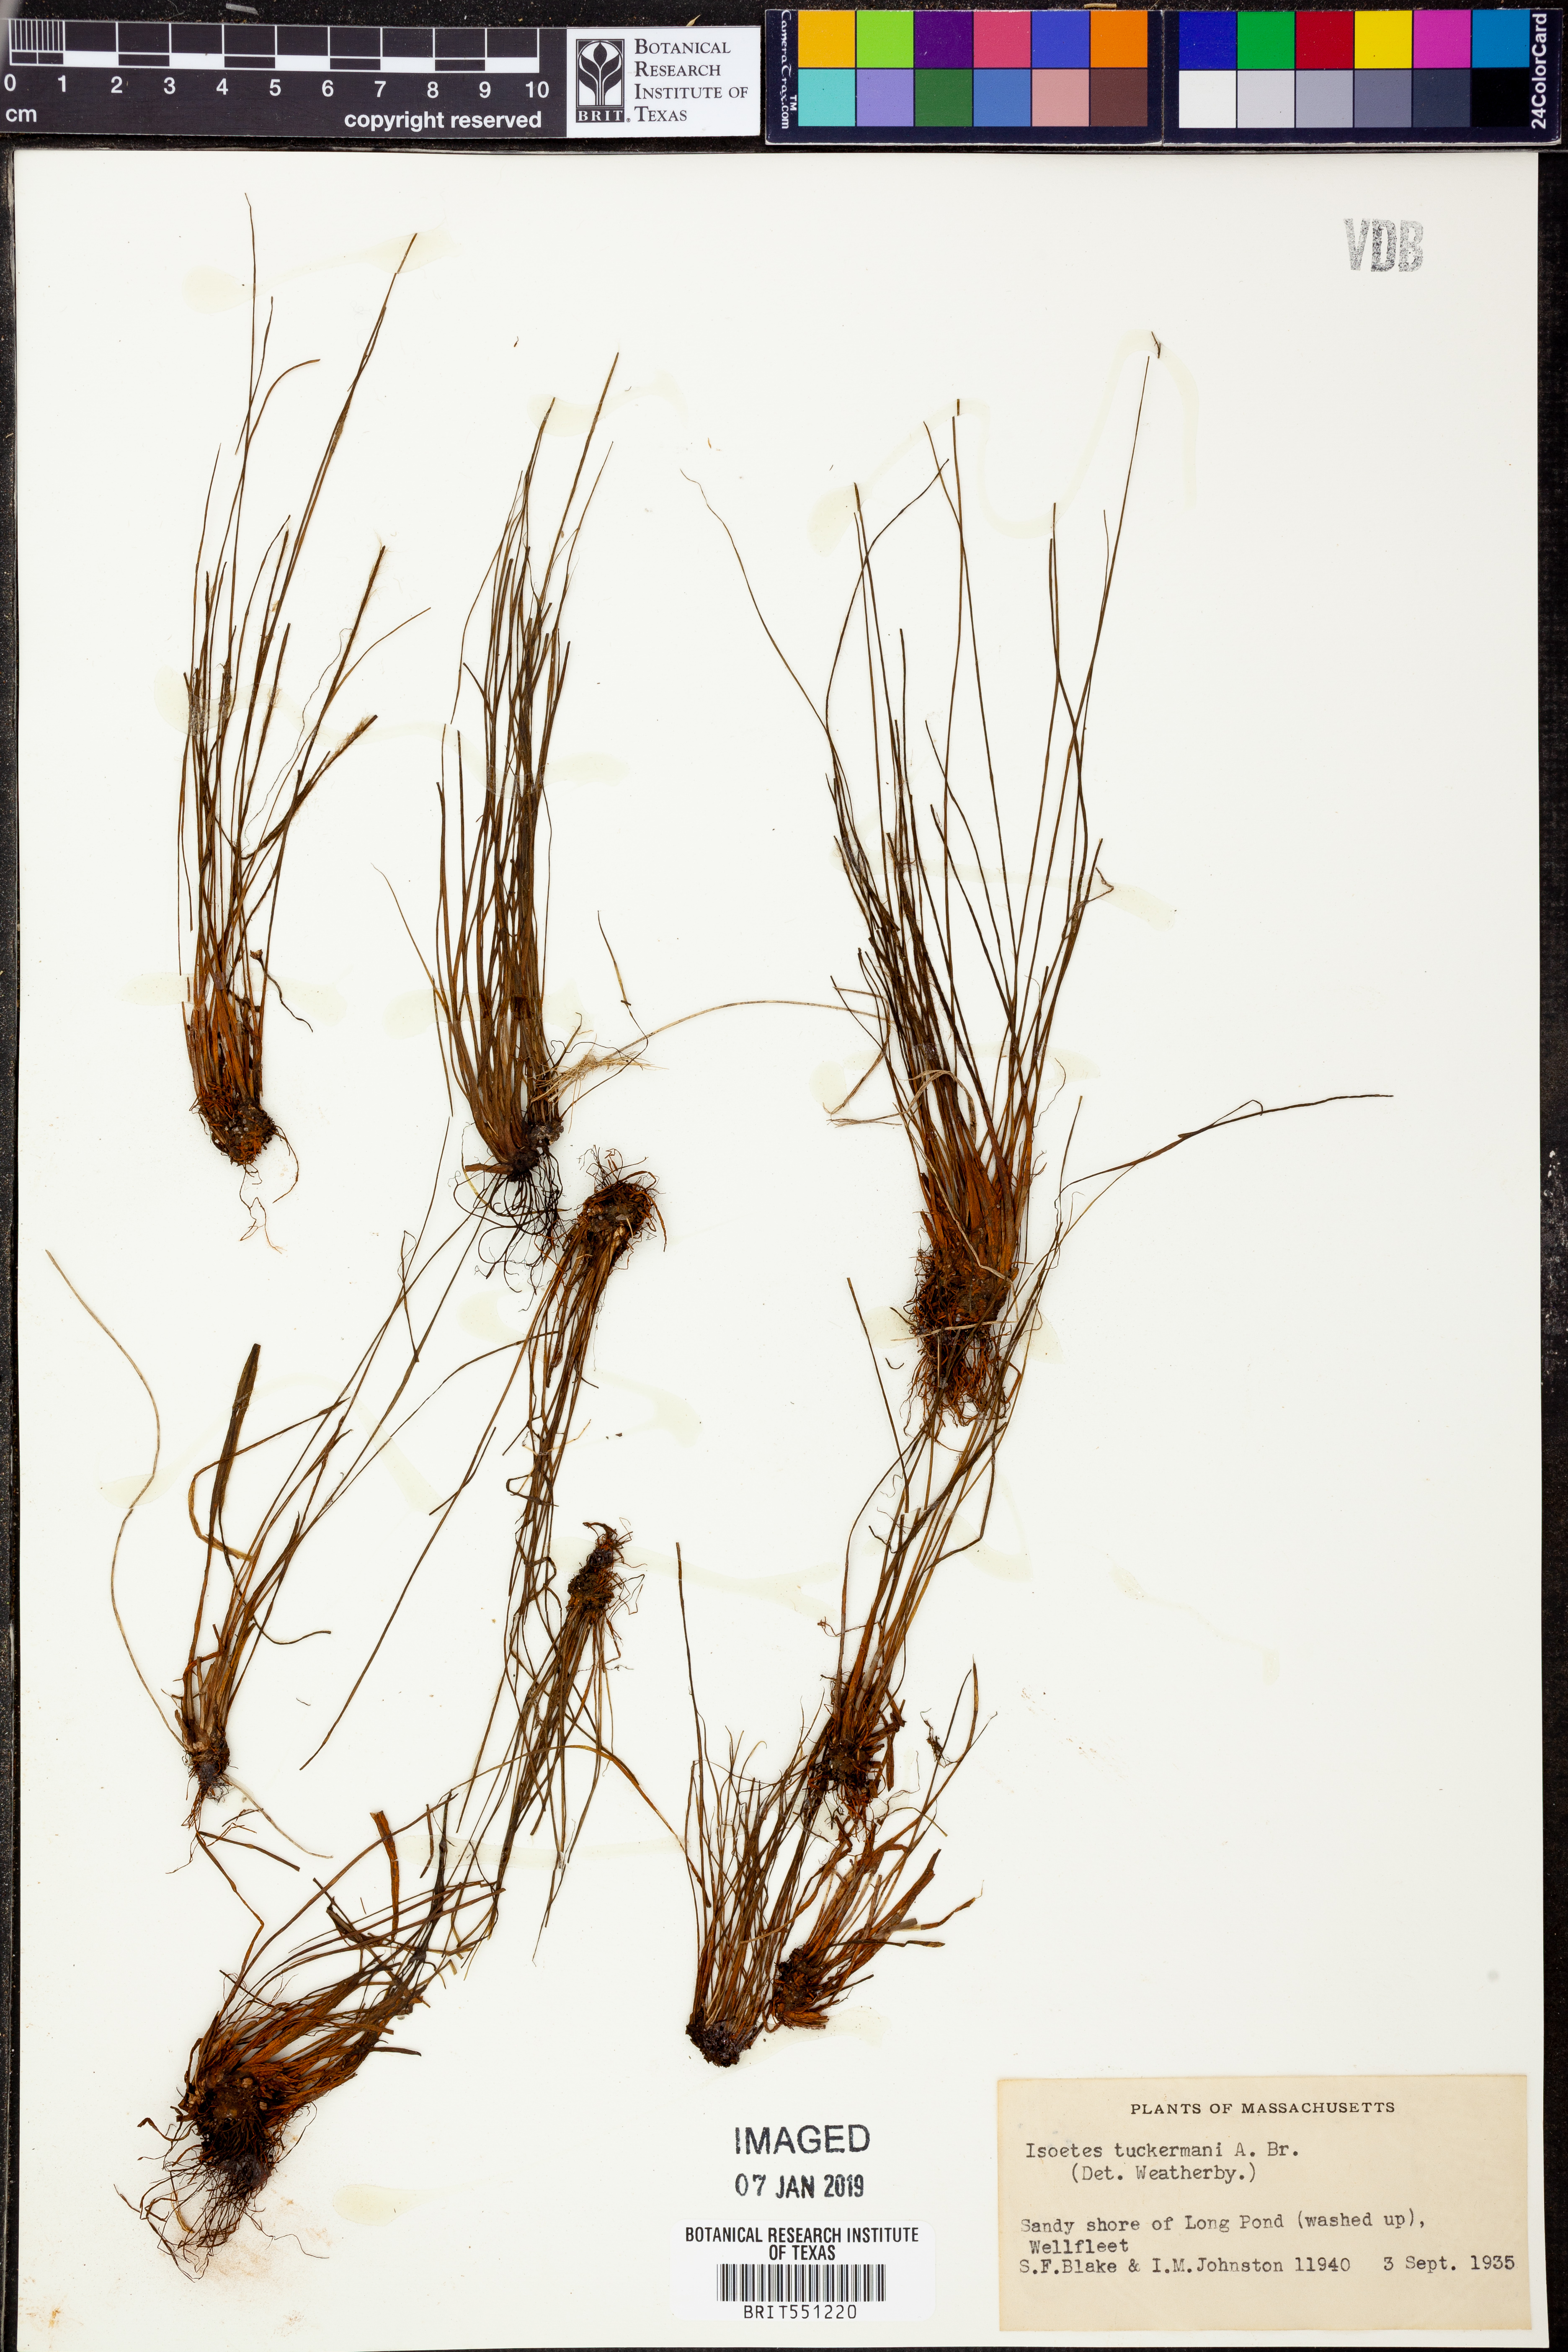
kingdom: Plantae
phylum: Tracheophyta
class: Lycopodiopsida
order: Isoetales
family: Isoetaceae
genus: Isoetes
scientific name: Isoetes tuckermanii
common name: Tuckerman's quillwort
